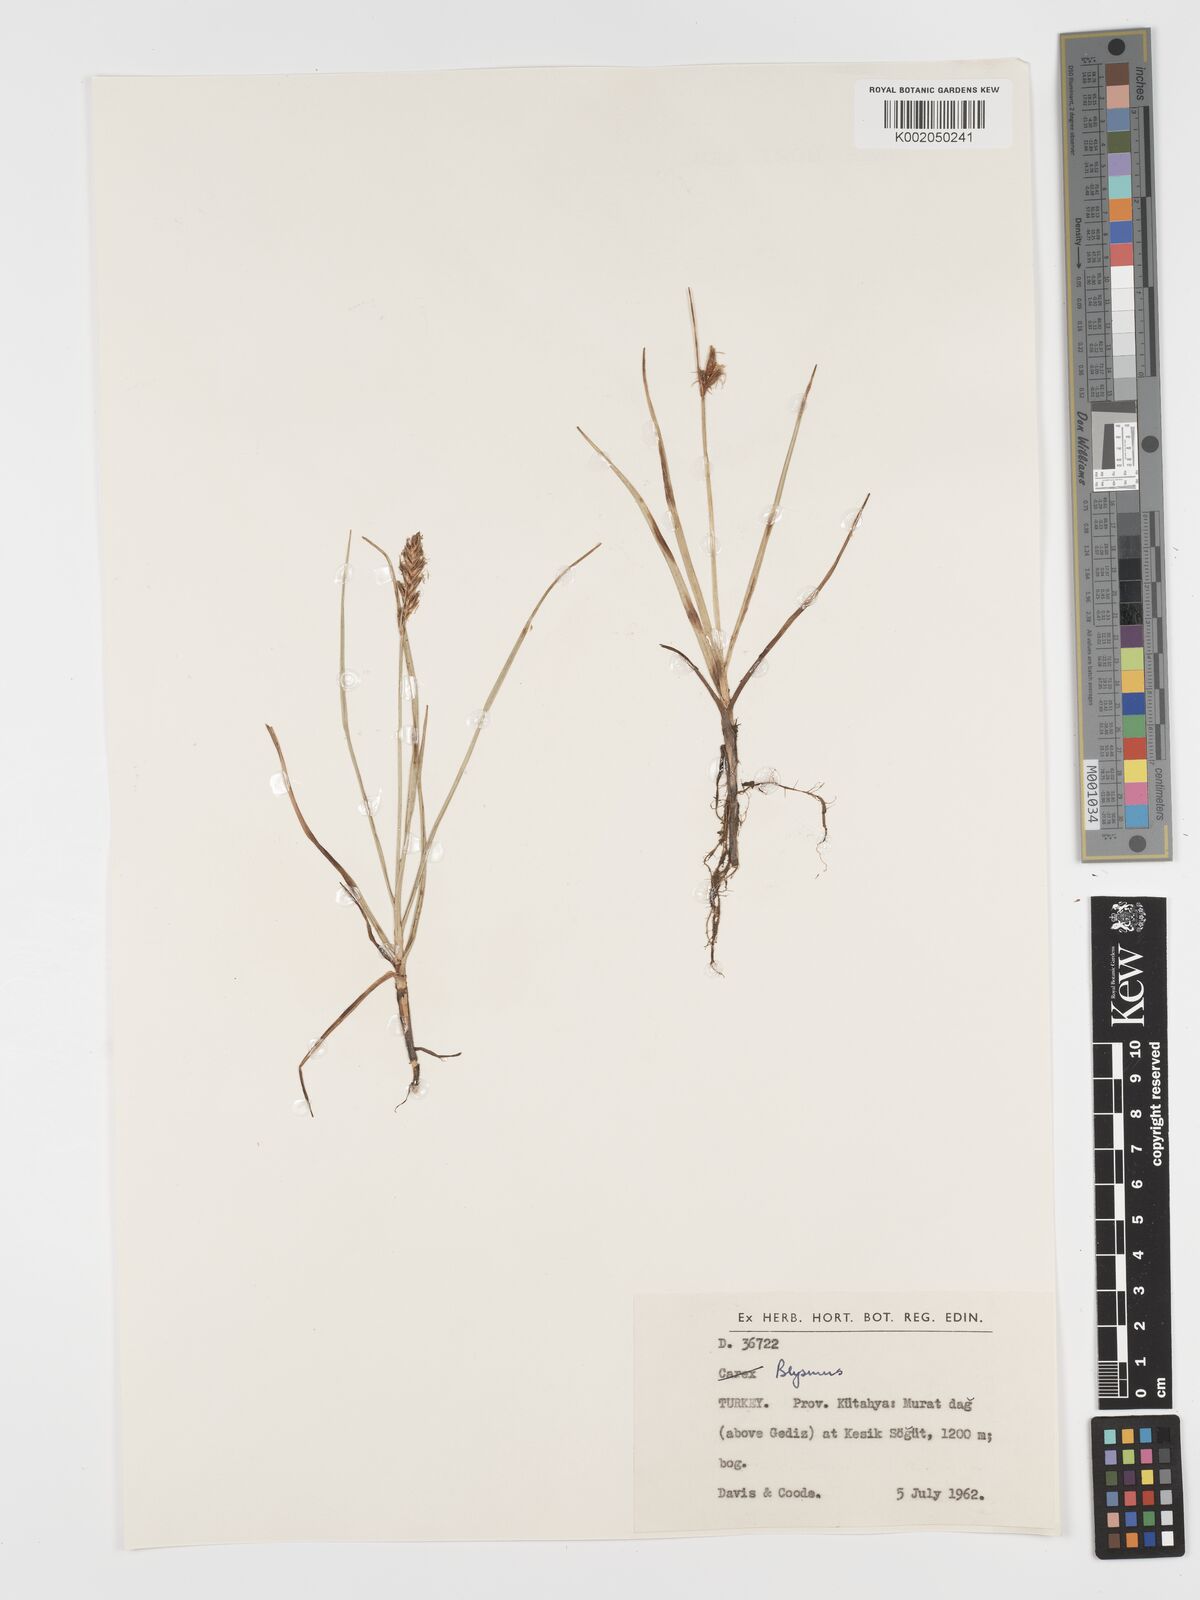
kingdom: Plantae
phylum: Tracheophyta
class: Liliopsida
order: Poales
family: Cyperaceae
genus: Blysmus
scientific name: Blysmus compressus
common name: Flat-sedge
